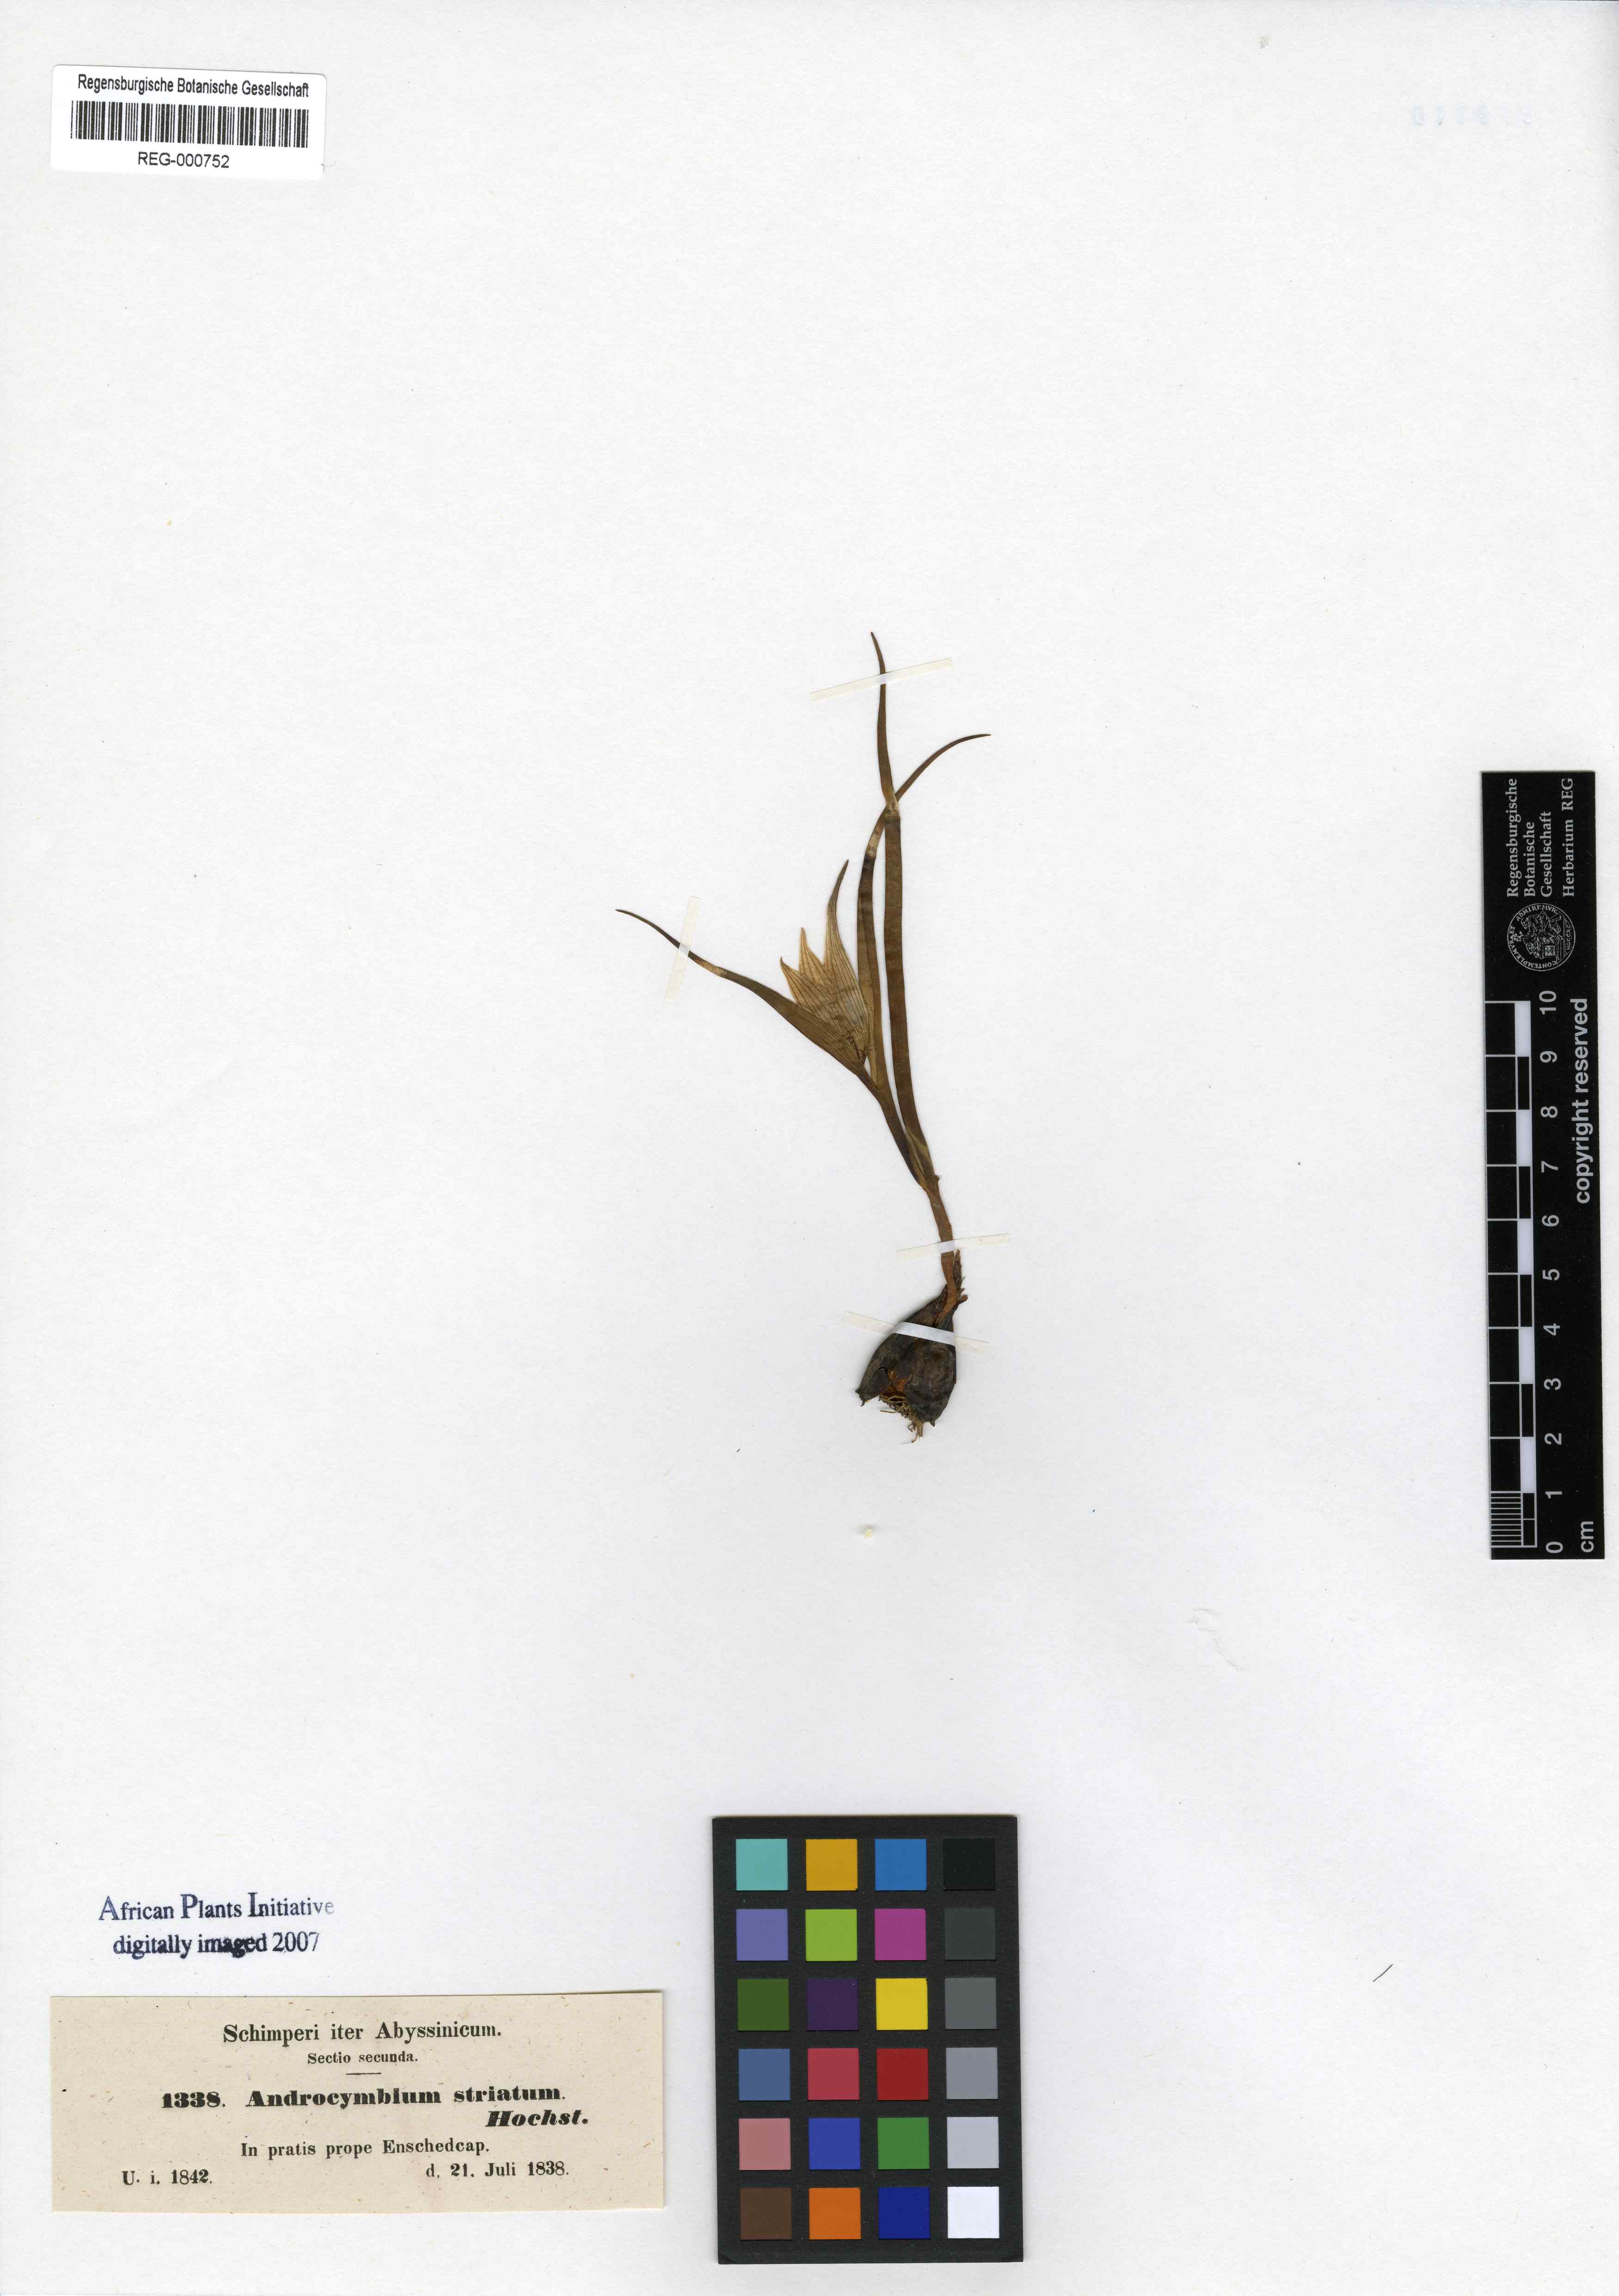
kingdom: Plantae
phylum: Tracheophyta
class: Liliopsida
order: Liliales
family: Colchicaceae
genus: Colchicum
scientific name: Colchicum striatum
